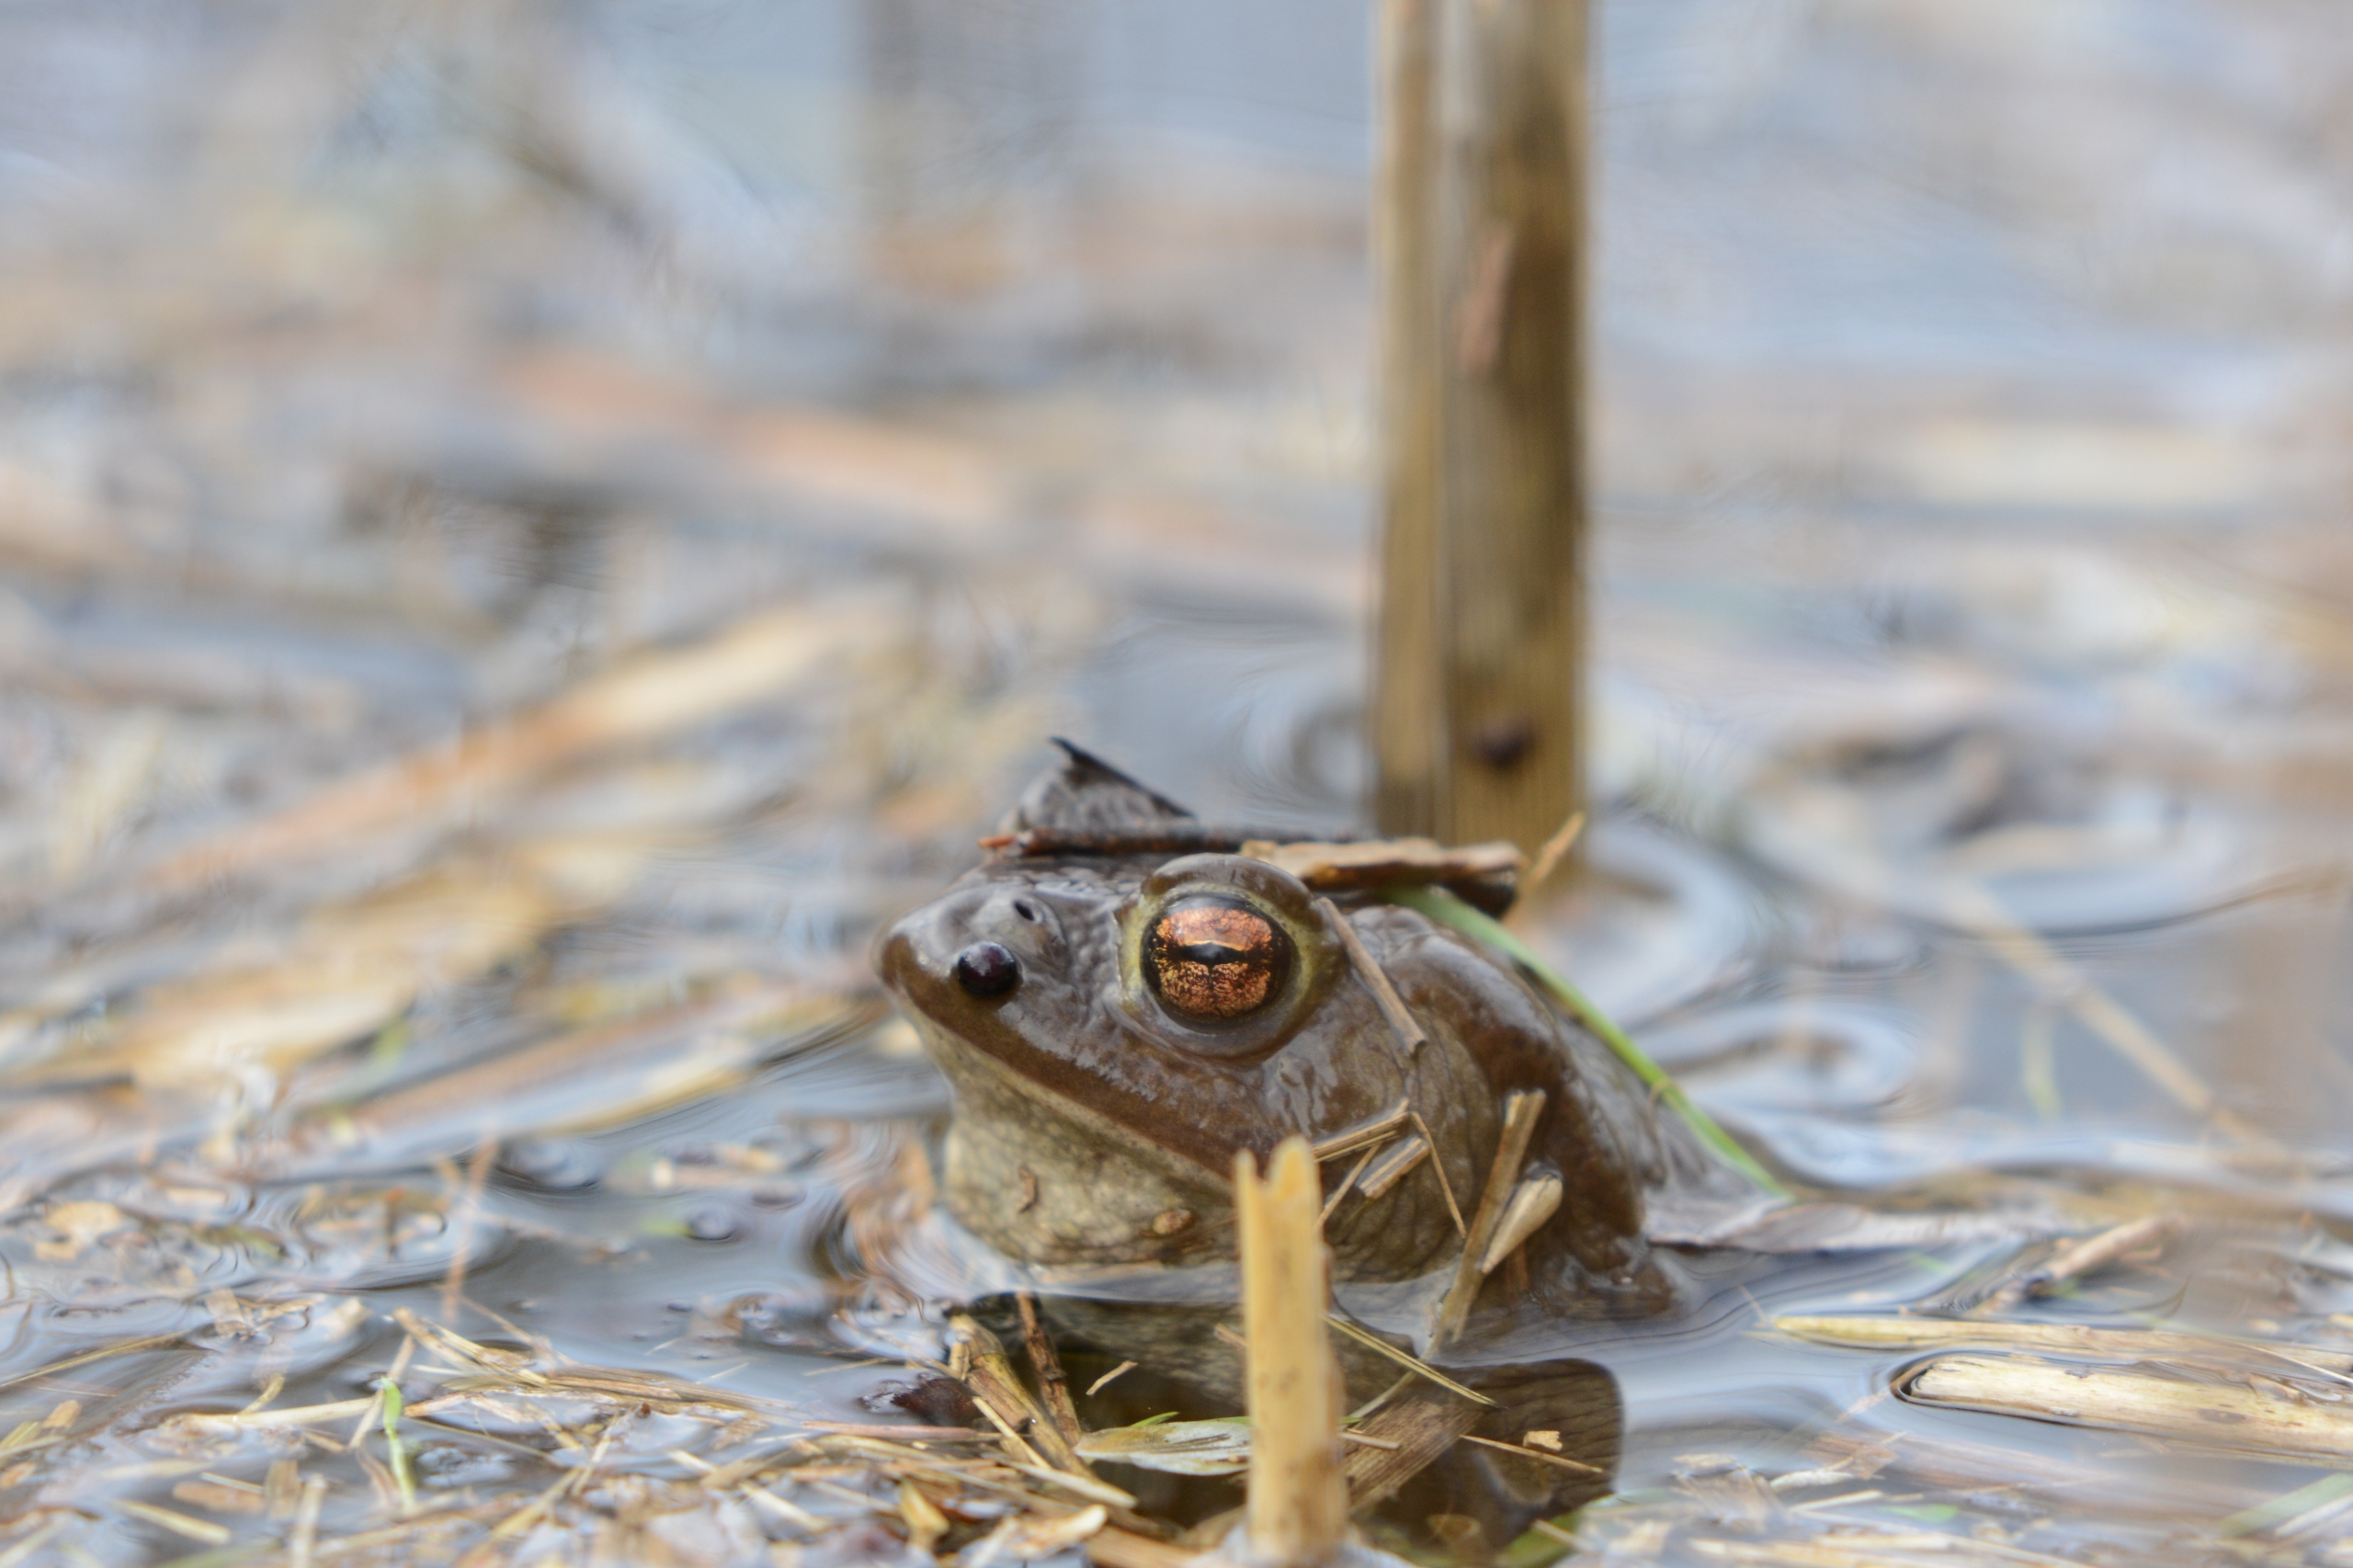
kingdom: Animalia
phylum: Chordata
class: Amphibia
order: Anura
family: Bufonidae
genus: Bufo
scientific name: Bufo bufo
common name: Skrubtudse
